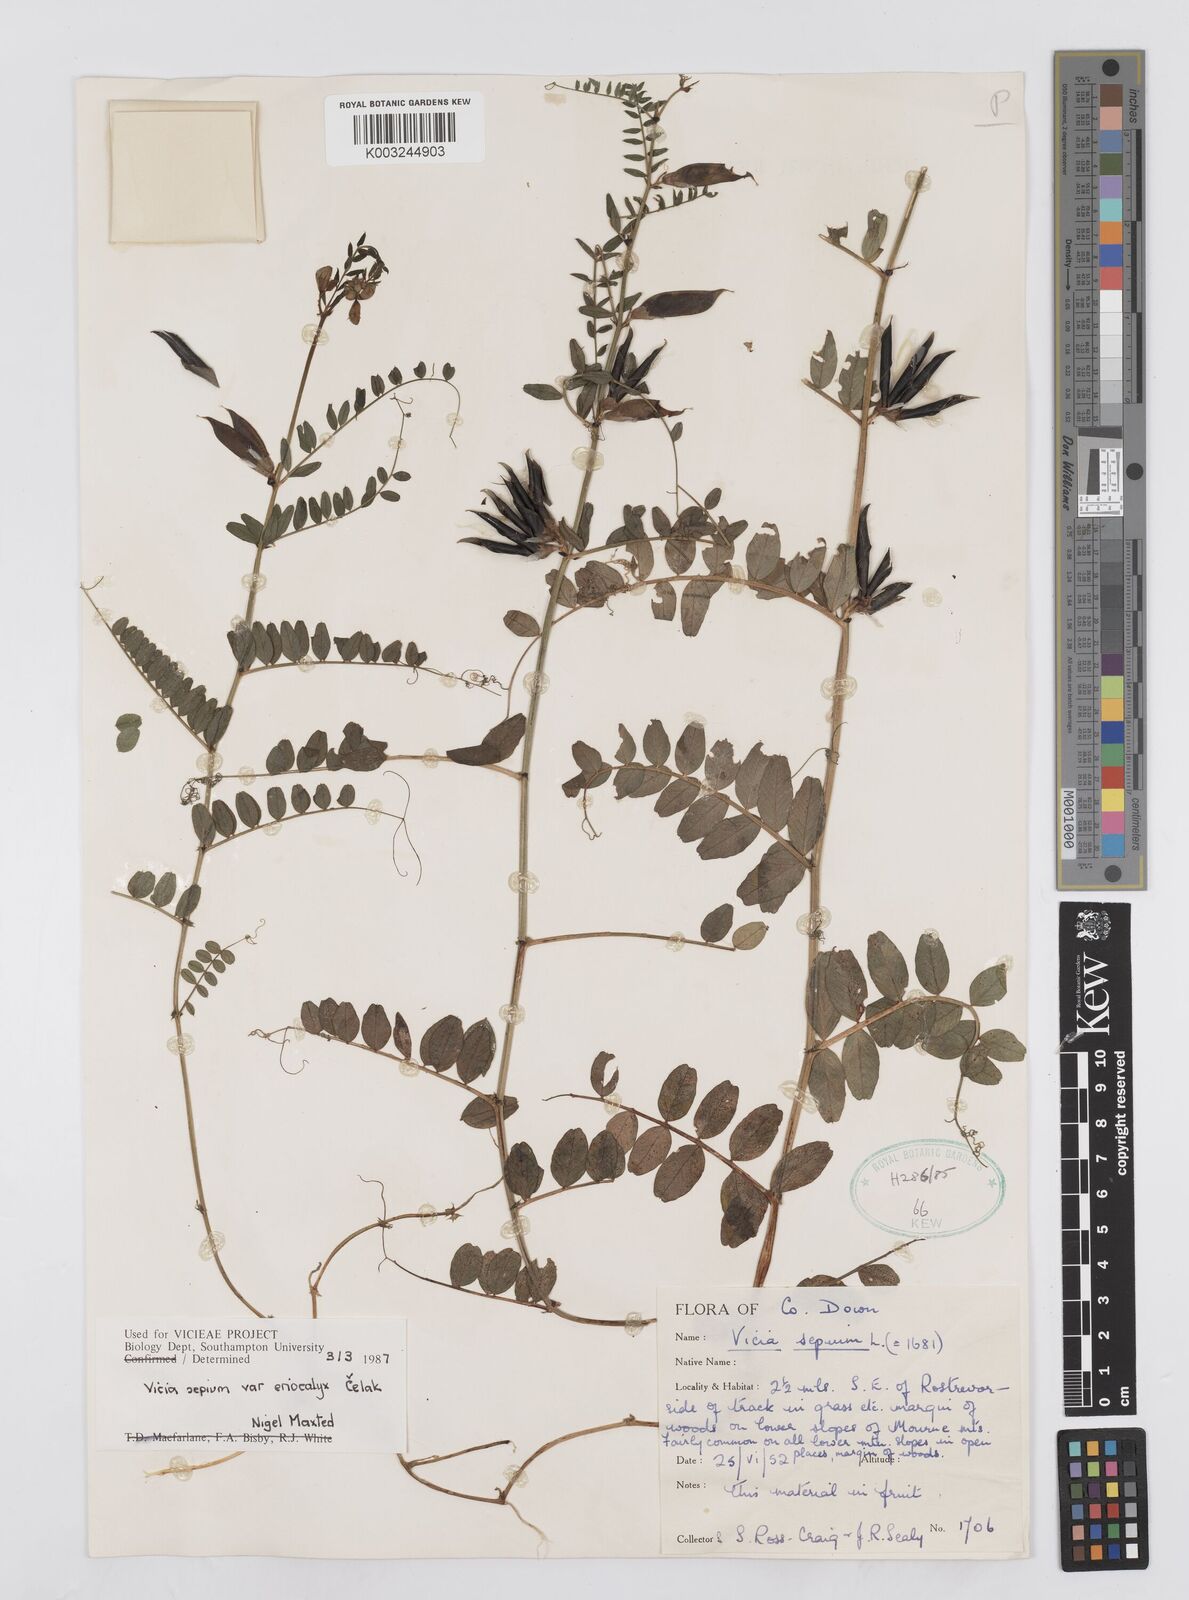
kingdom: Plantae
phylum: Tracheophyta
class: Magnoliopsida
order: Fabales
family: Fabaceae
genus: Vicia
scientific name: Vicia sepium
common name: Bush vetch
